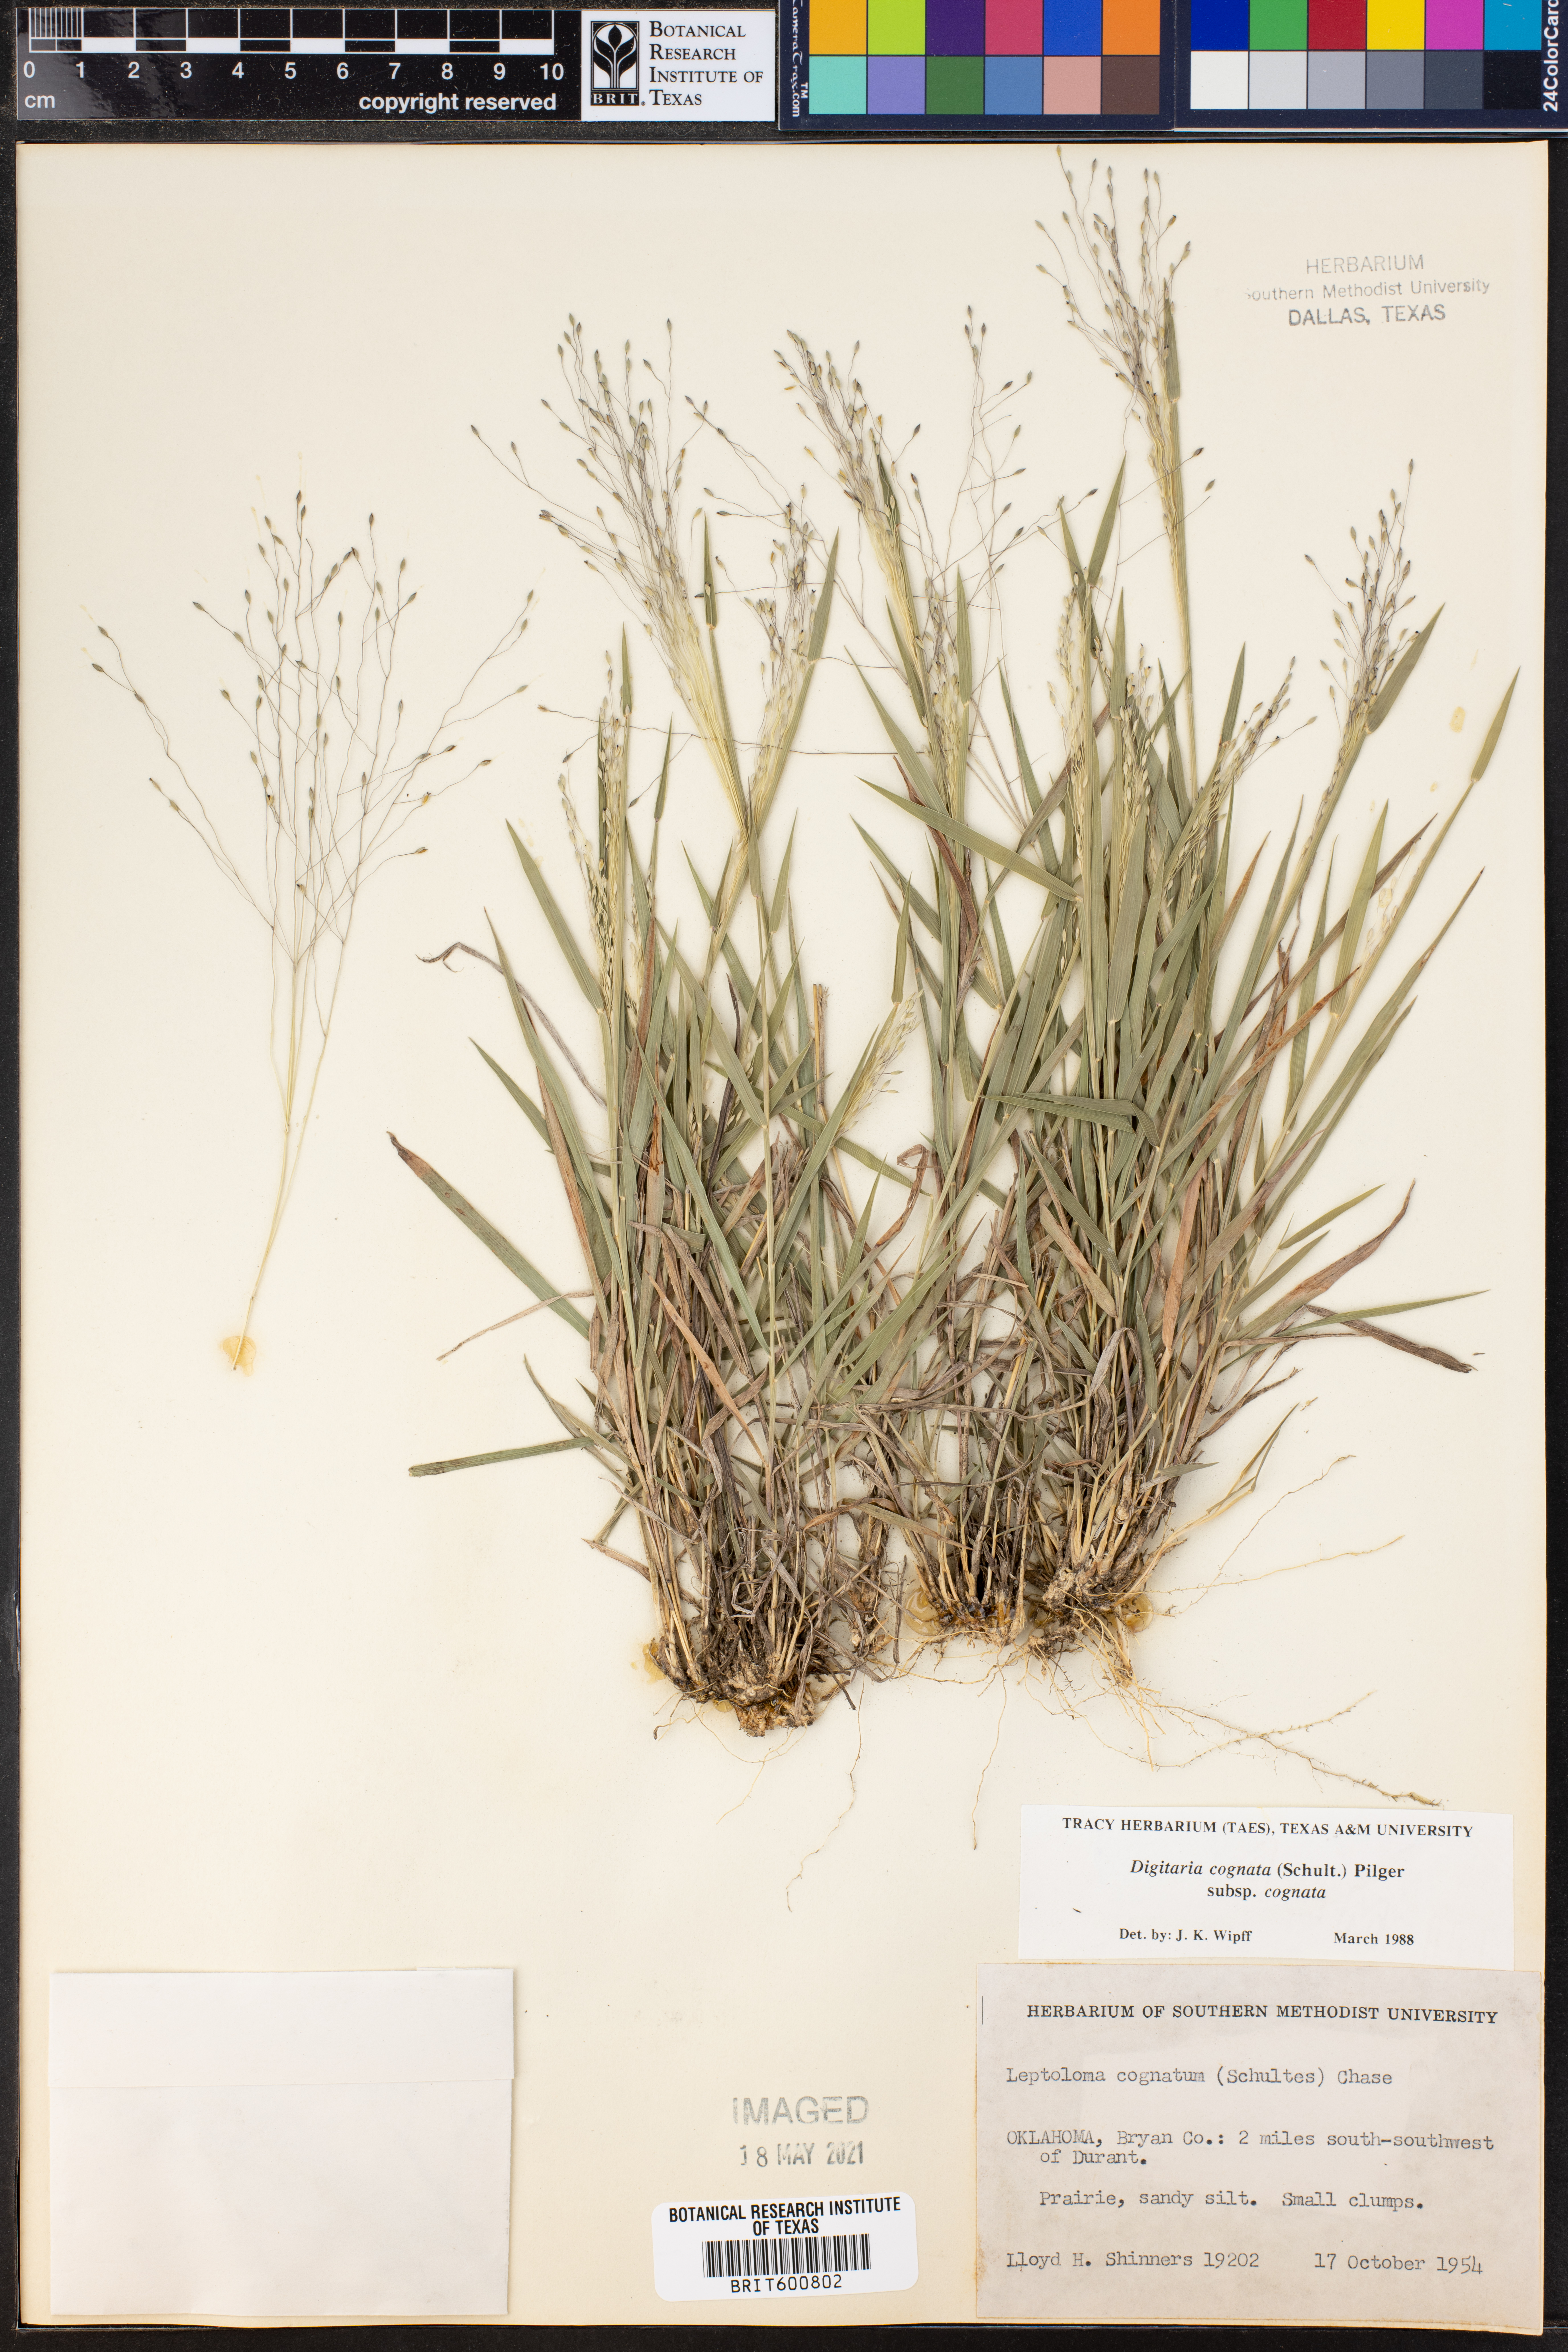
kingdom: Plantae
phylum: Tracheophyta
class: Liliopsida
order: Poales
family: Poaceae
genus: Digitaria
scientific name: Digitaria cognata
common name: Fall witchgrass
